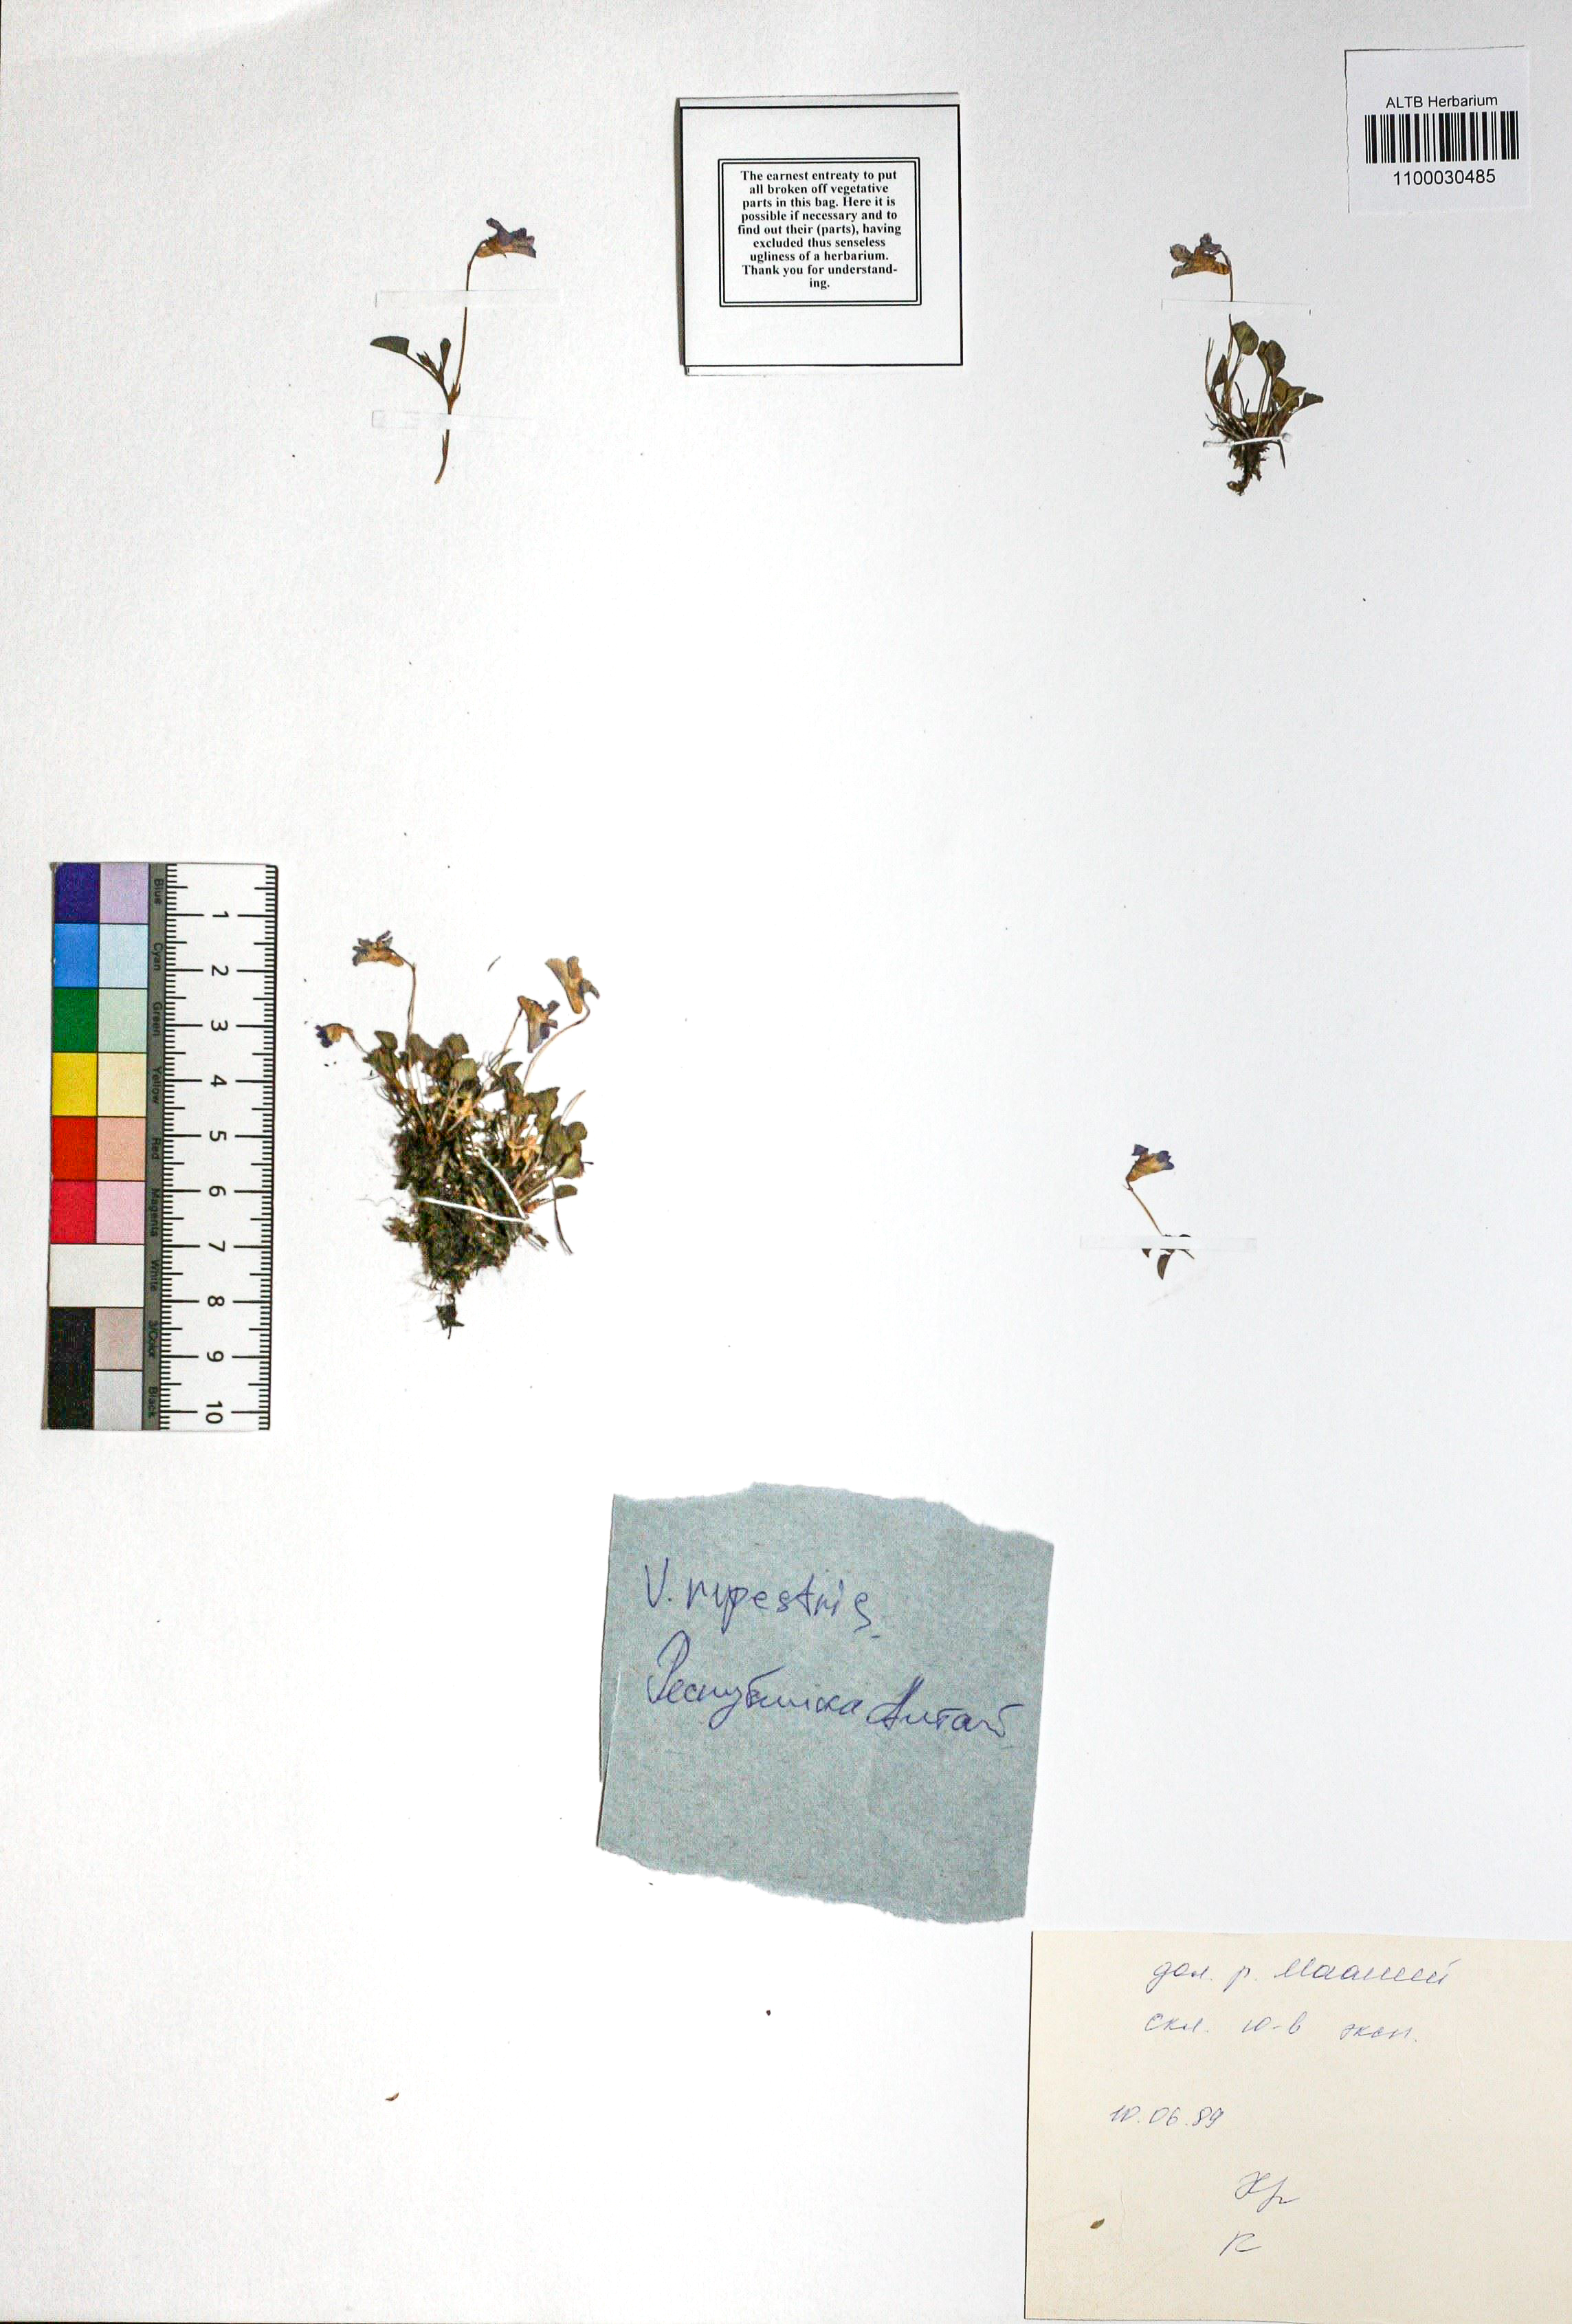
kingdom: Plantae
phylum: Tracheophyta
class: Magnoliopsida
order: Malpighiales
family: Violaceae
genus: Viola
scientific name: Viola rupestris
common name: Teesdale violet
